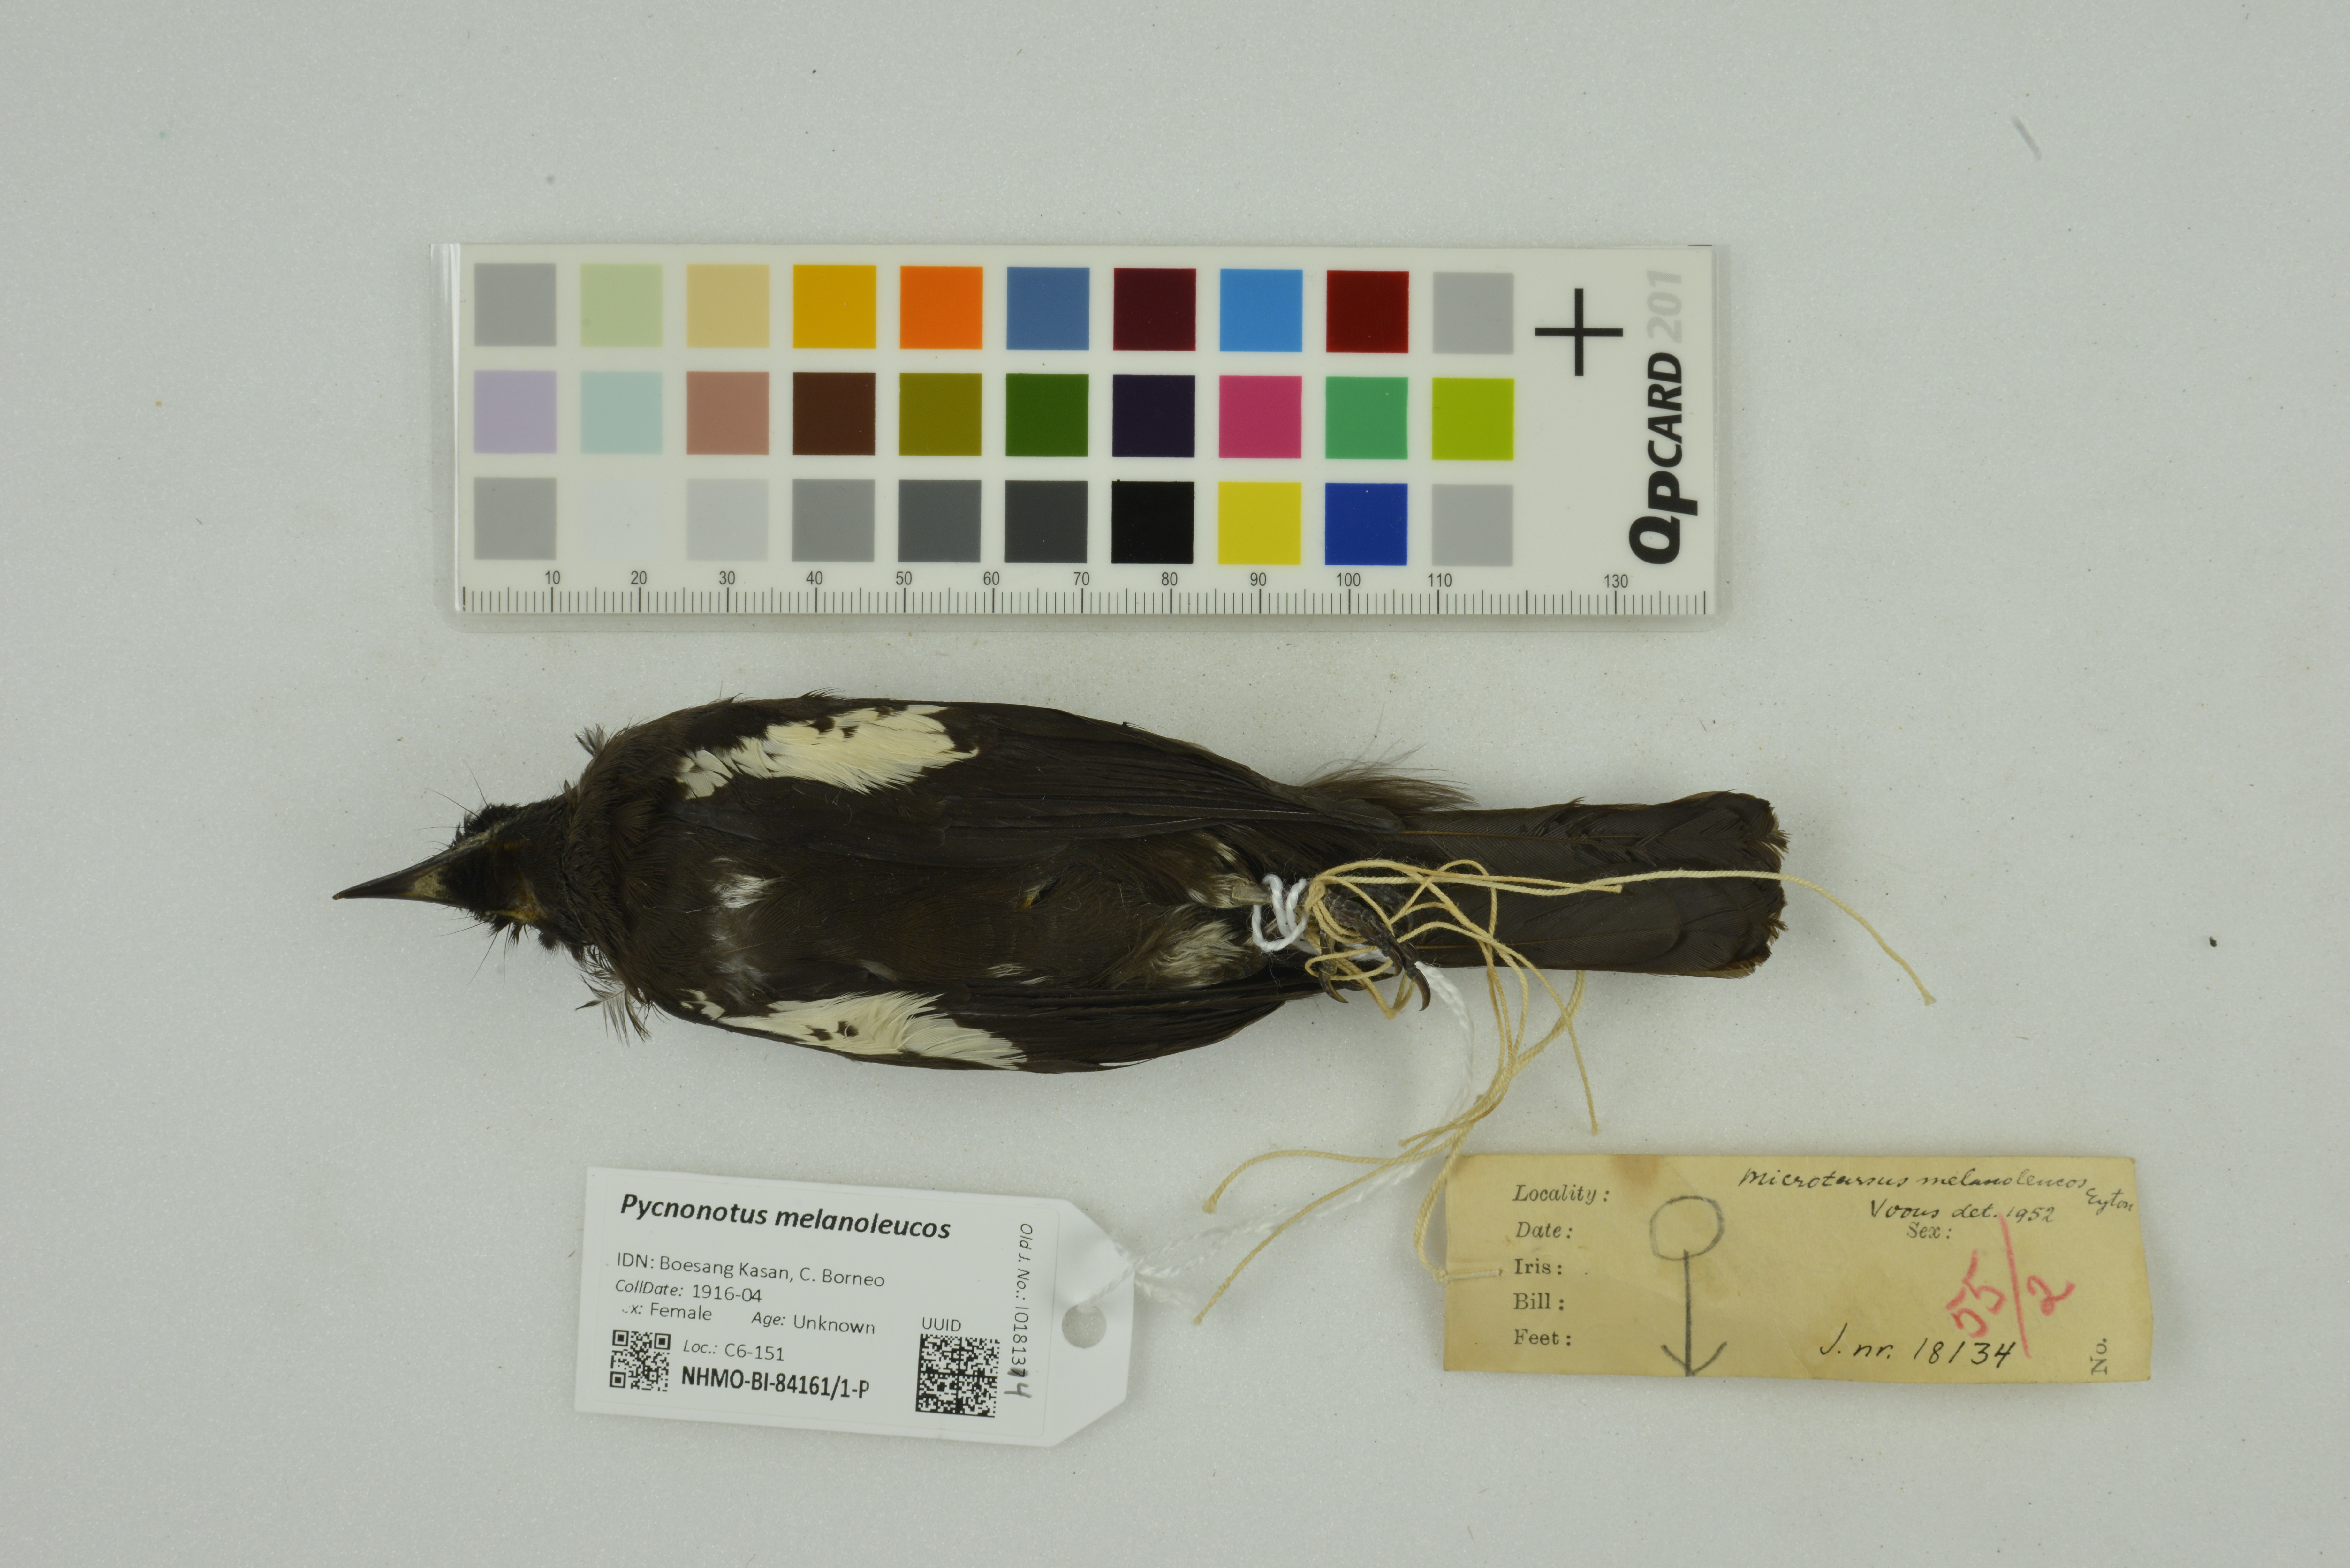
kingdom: Animalia
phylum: Chordata
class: Aves
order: Passeriformes
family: Pycnonotidae
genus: Pycnonotus
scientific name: Pycnonotus melanoleucos
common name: Black-and-white bulbul
